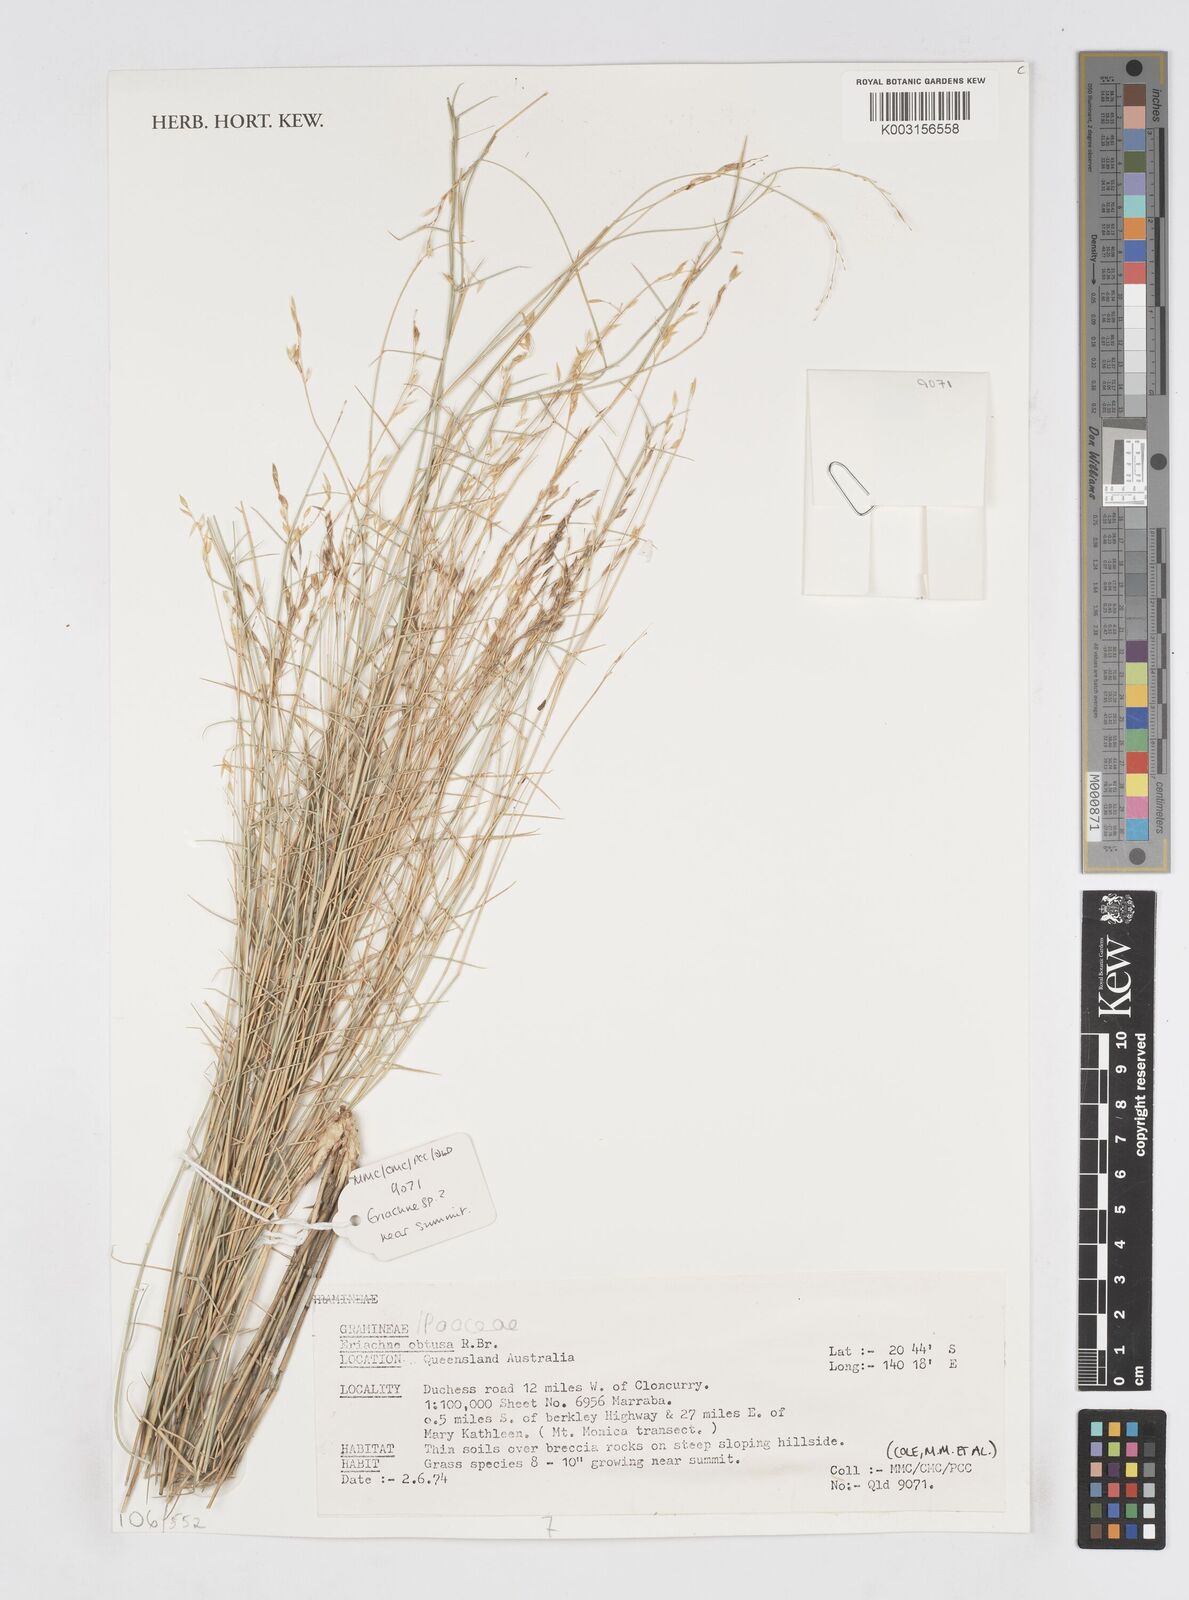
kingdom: Plantae
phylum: Tracheophyta
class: Liliopsida
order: Poales
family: Poaceae
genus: Eriachne
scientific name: Eriachne obtusa
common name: Northern wanderrie grass
